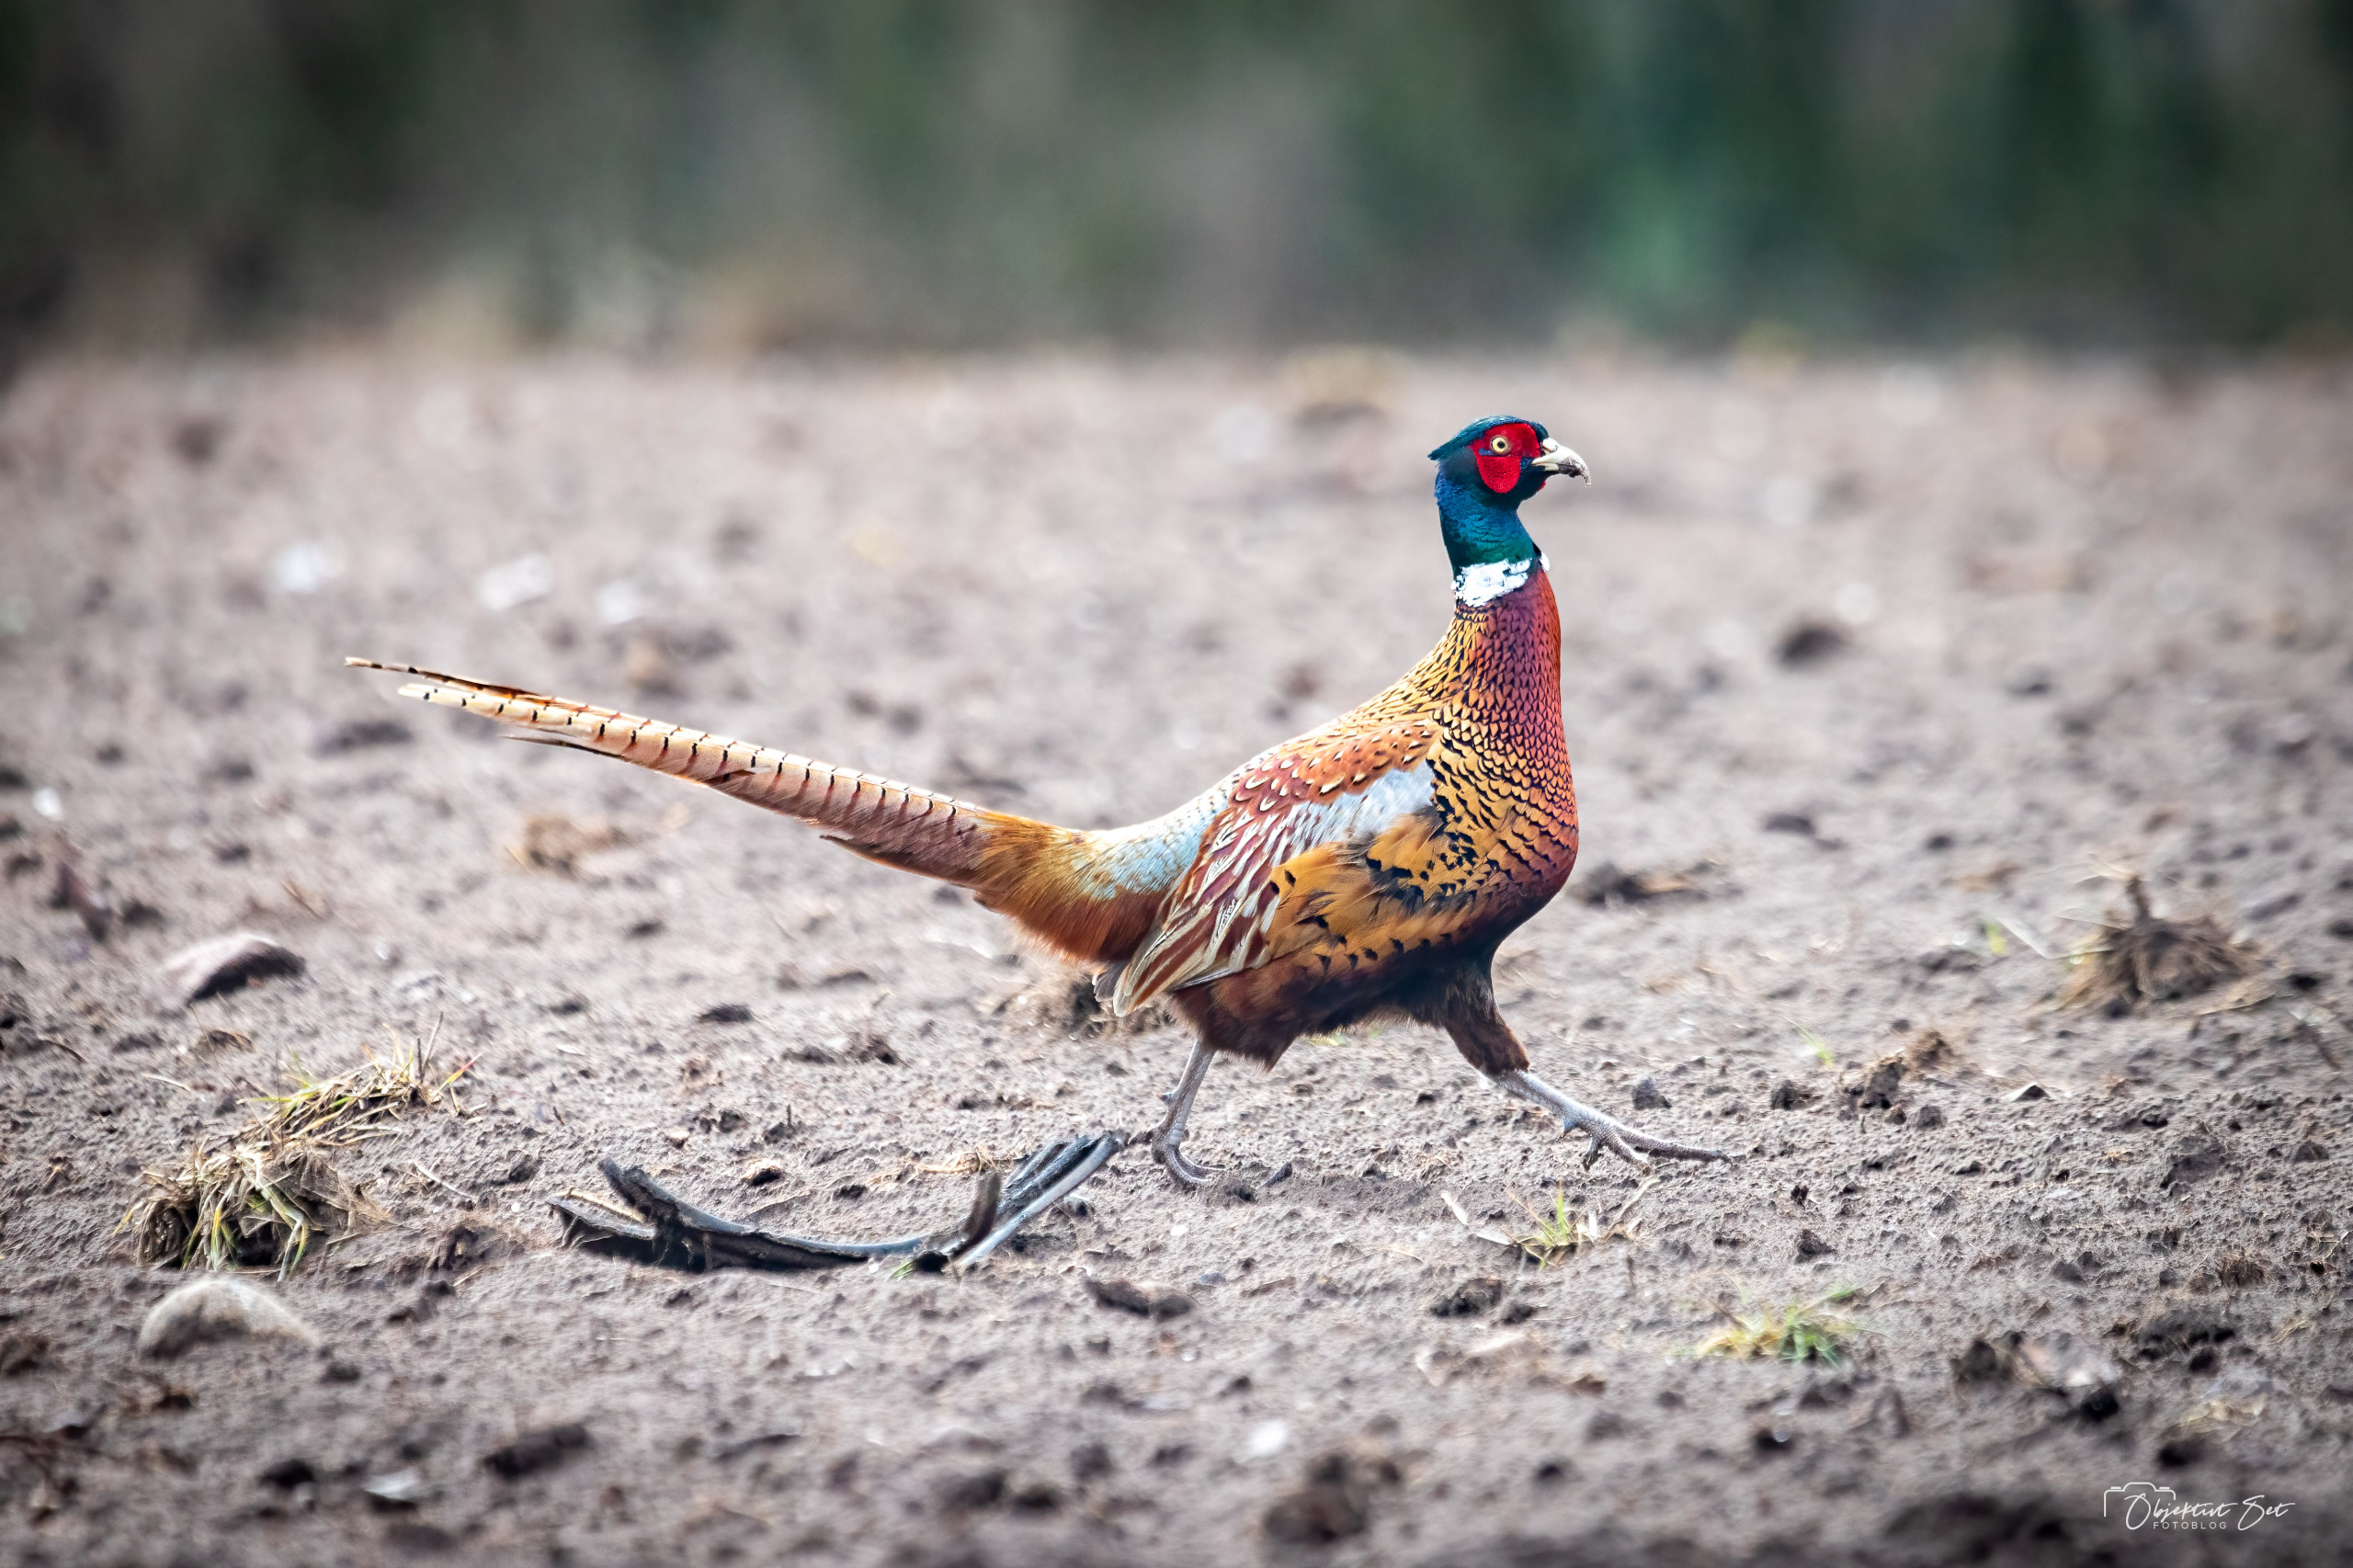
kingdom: Animalia
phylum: Chordata
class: Aves
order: Galliformes
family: Phasianidae
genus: Phasianus
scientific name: Phasianus colchicus
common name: Fasan
